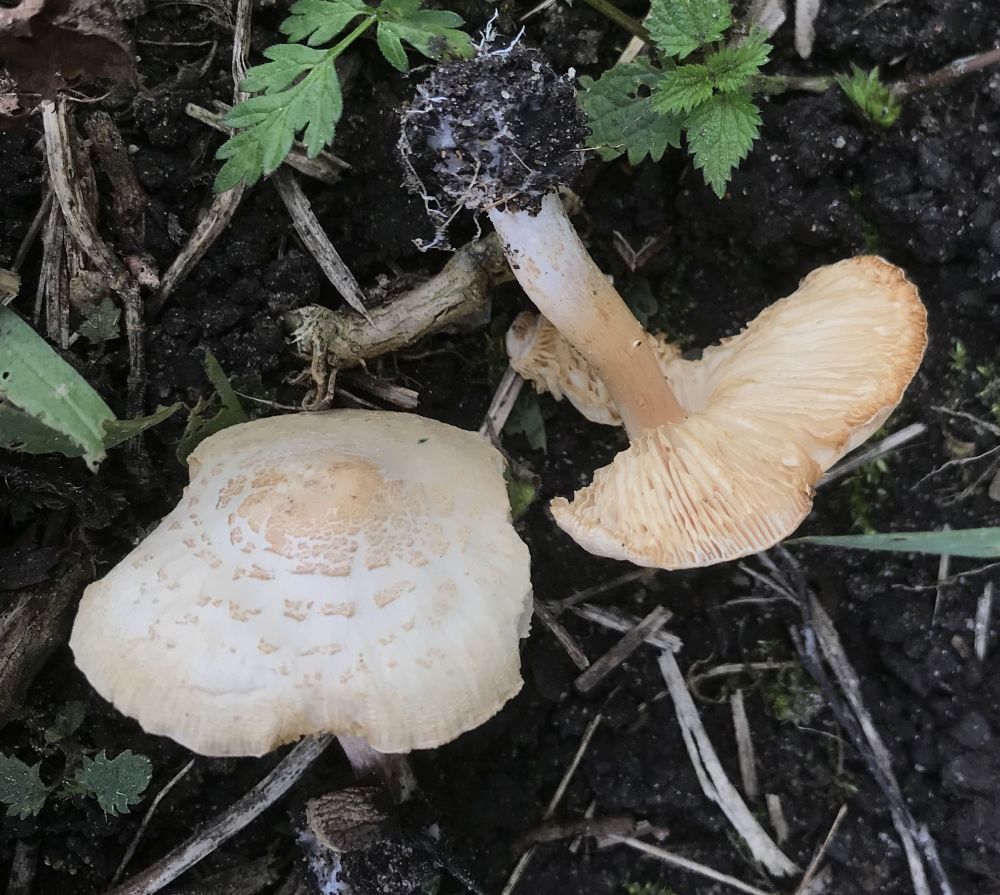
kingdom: Fungi
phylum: Basidiomycota
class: Agaricomycetes
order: Agaricales
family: Agaricaceae
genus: Lepiota
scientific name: Lepiota
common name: parasolhat
